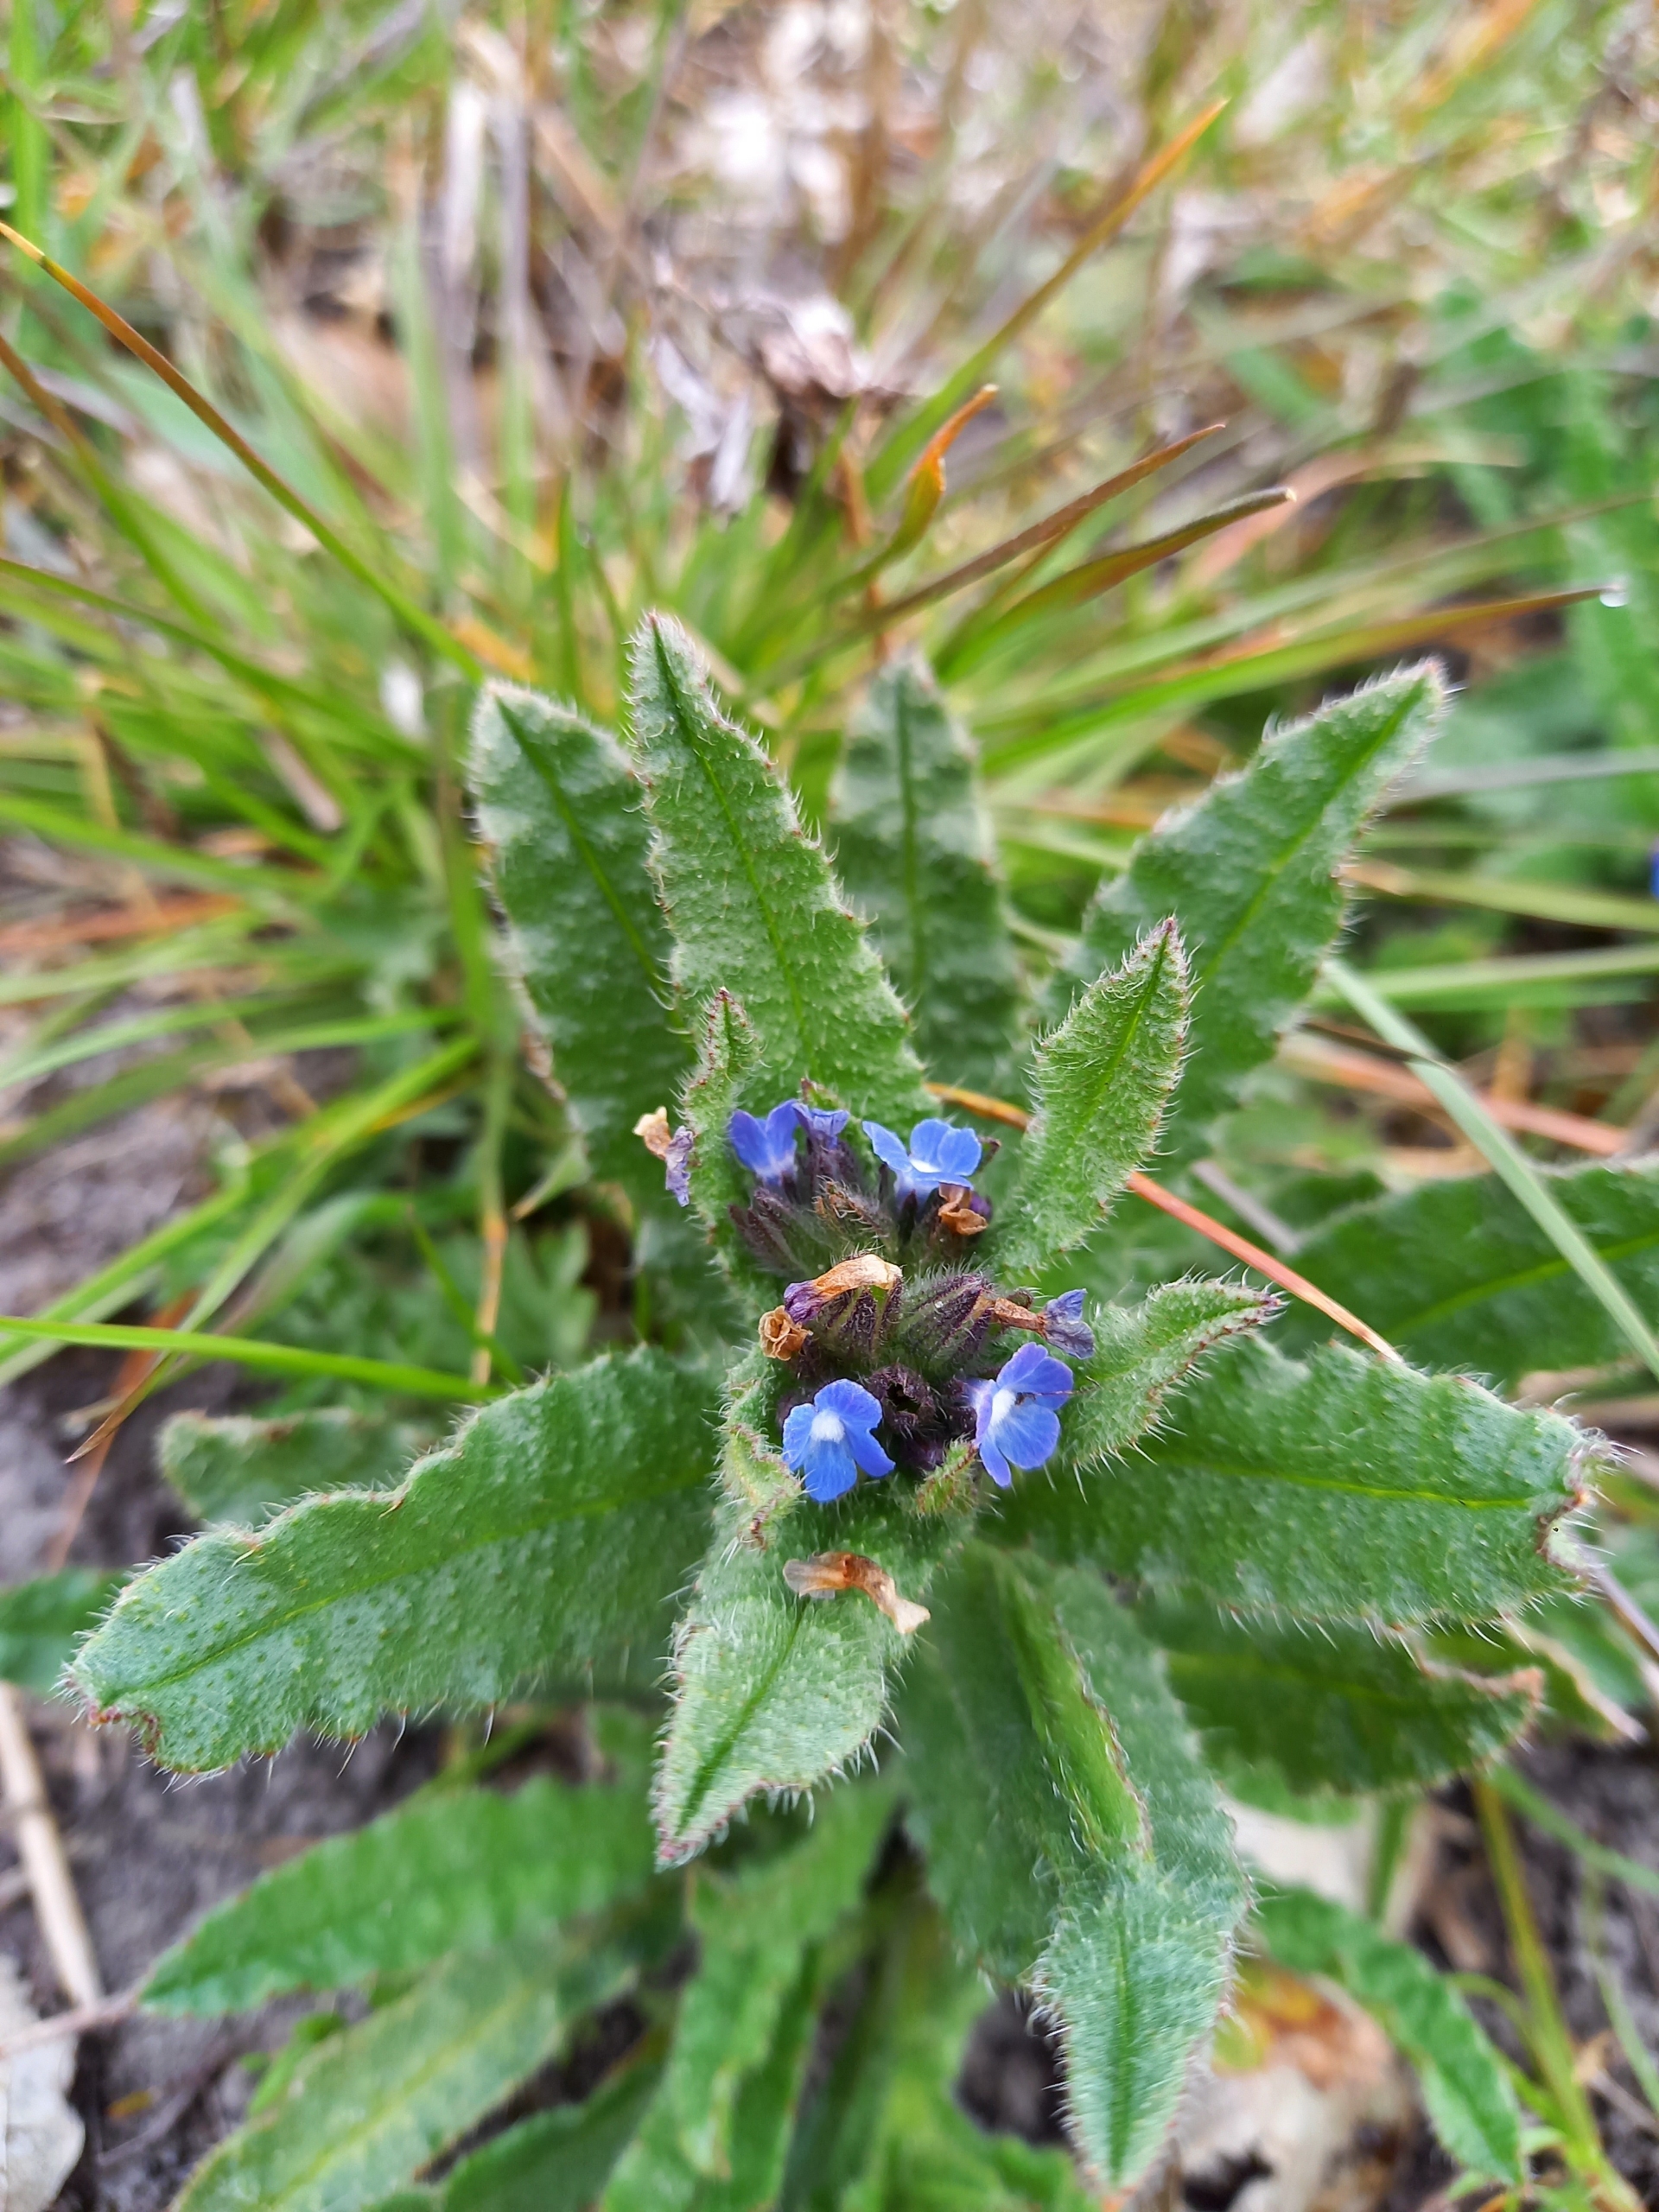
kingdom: Plantae
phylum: Tracheophyta
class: Magnoliopsida
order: Boraginales
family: Boraginaceae
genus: Lycopsis
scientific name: Lycopsis arvensis
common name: Krumhals
